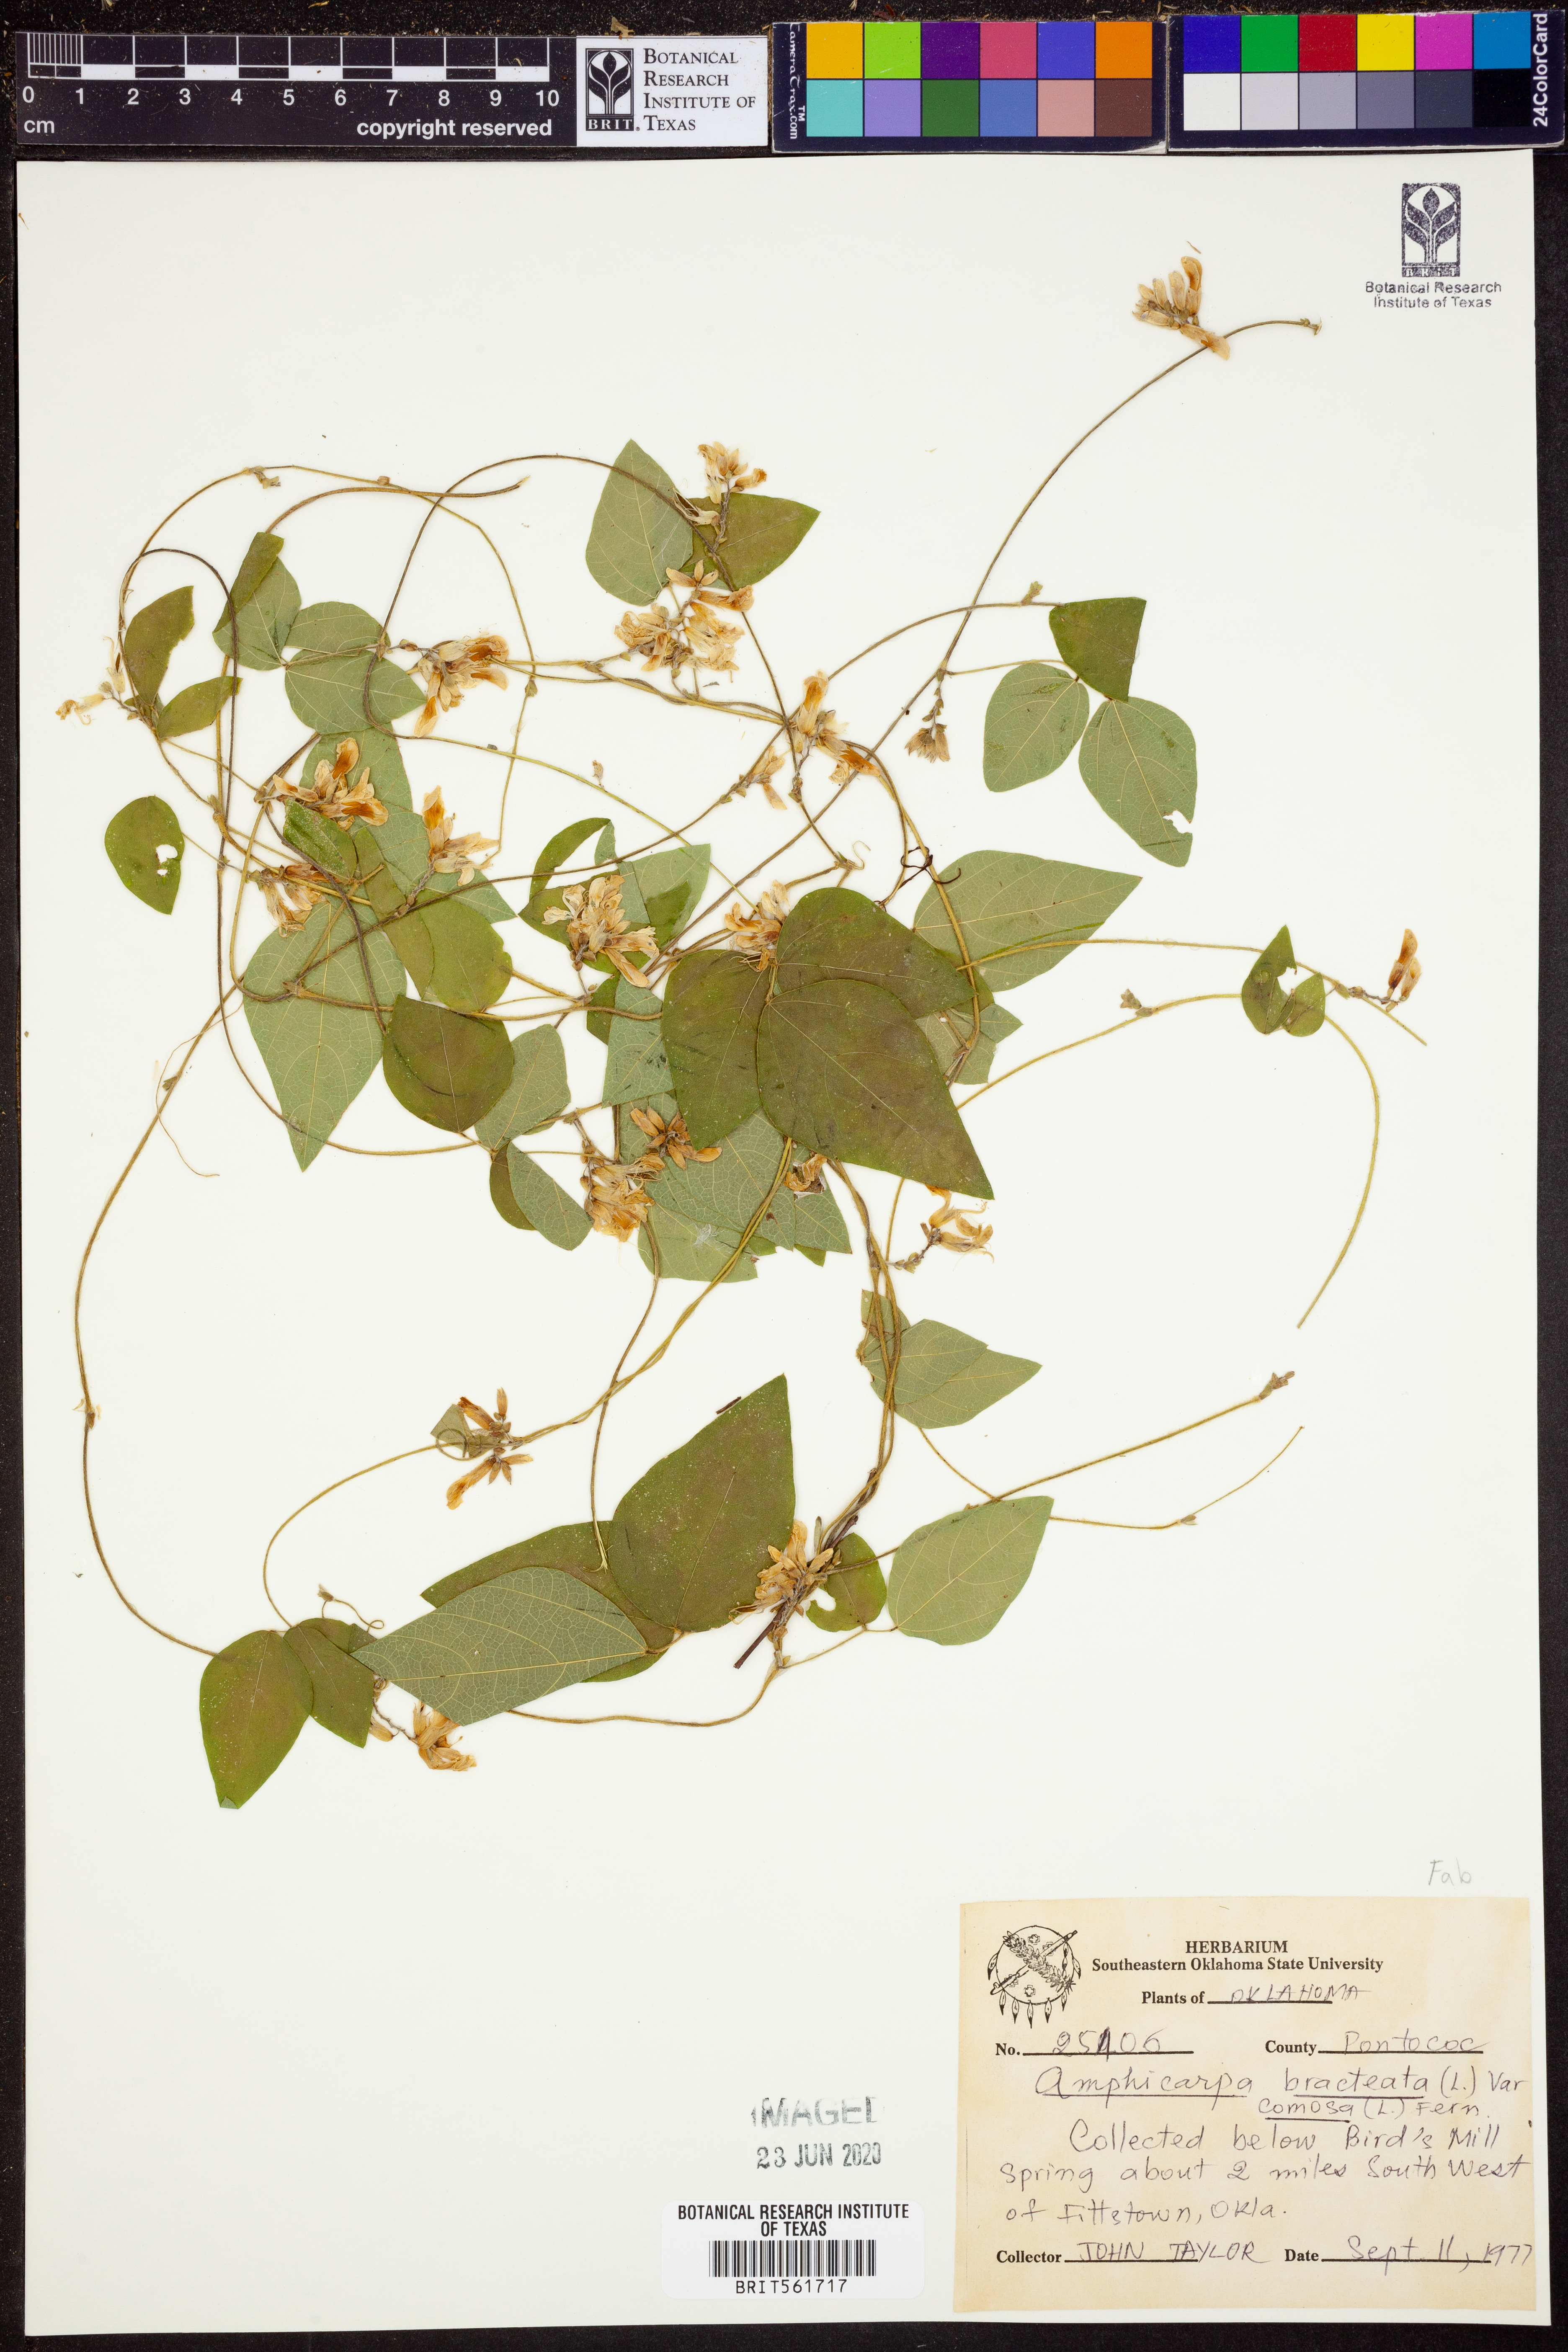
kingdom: Plantae
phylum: Tracheophyta
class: Magnoliopsida
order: Fabales
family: Fabaceae
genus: Amphicarpaea
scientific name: Amphicarpaea bracteata
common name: American hog peanut
